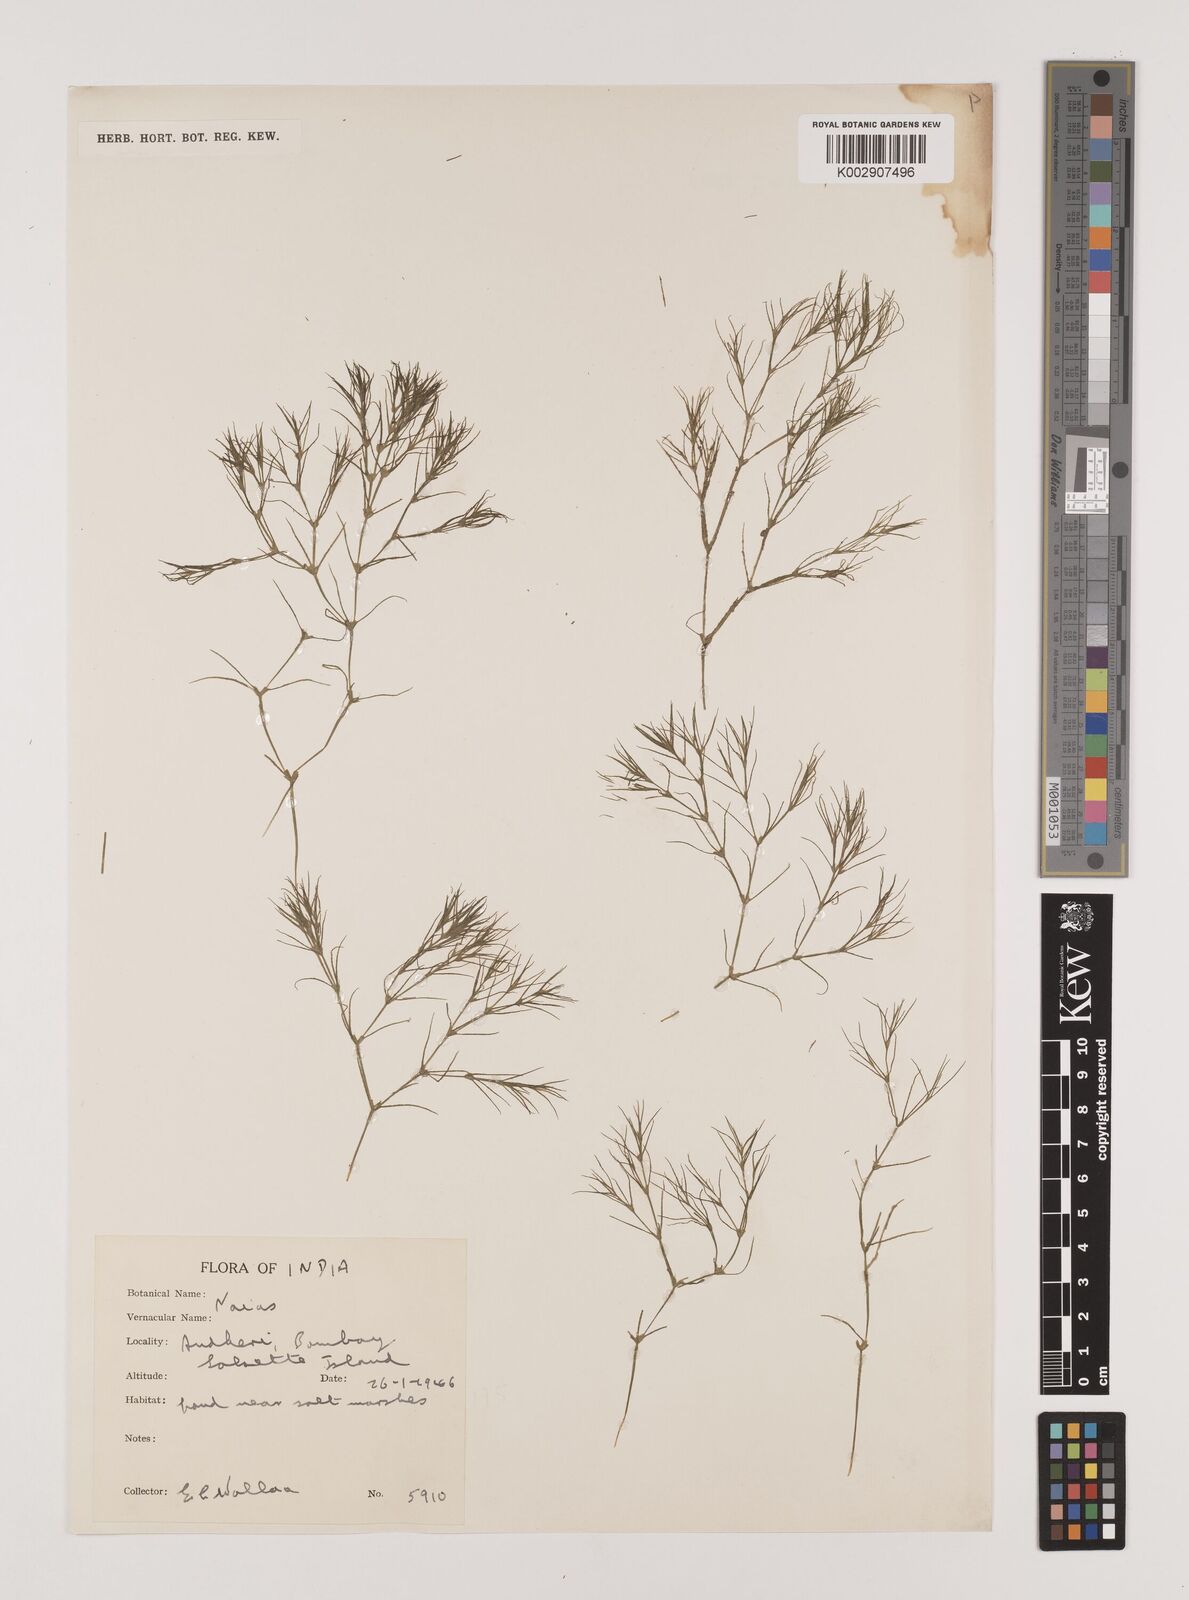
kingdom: Plantae
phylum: Tracheophyta
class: Liliopsida
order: Alismatales
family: Hydrocharitaceae
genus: Najas
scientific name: Najas
